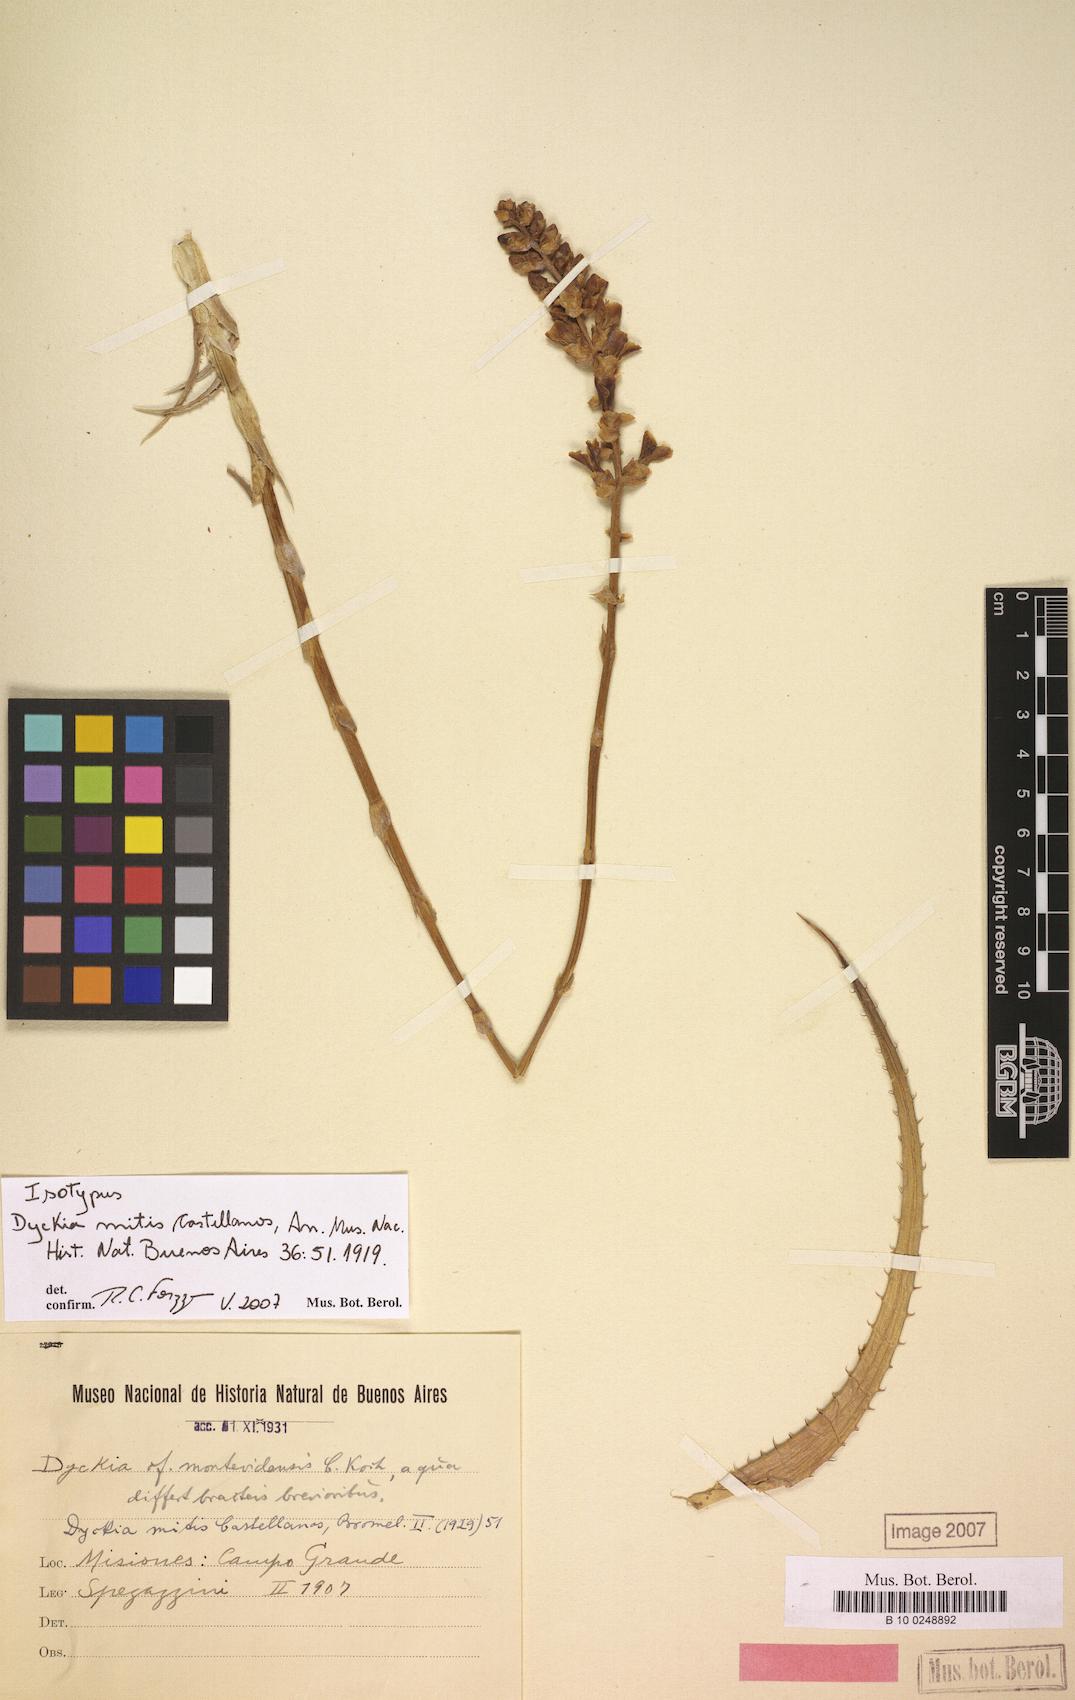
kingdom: Plantae
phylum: Tracheophyta
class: Liliopsida
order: Poales
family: Bromeliaceae
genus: Dyckia
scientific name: Dyckia mitis
